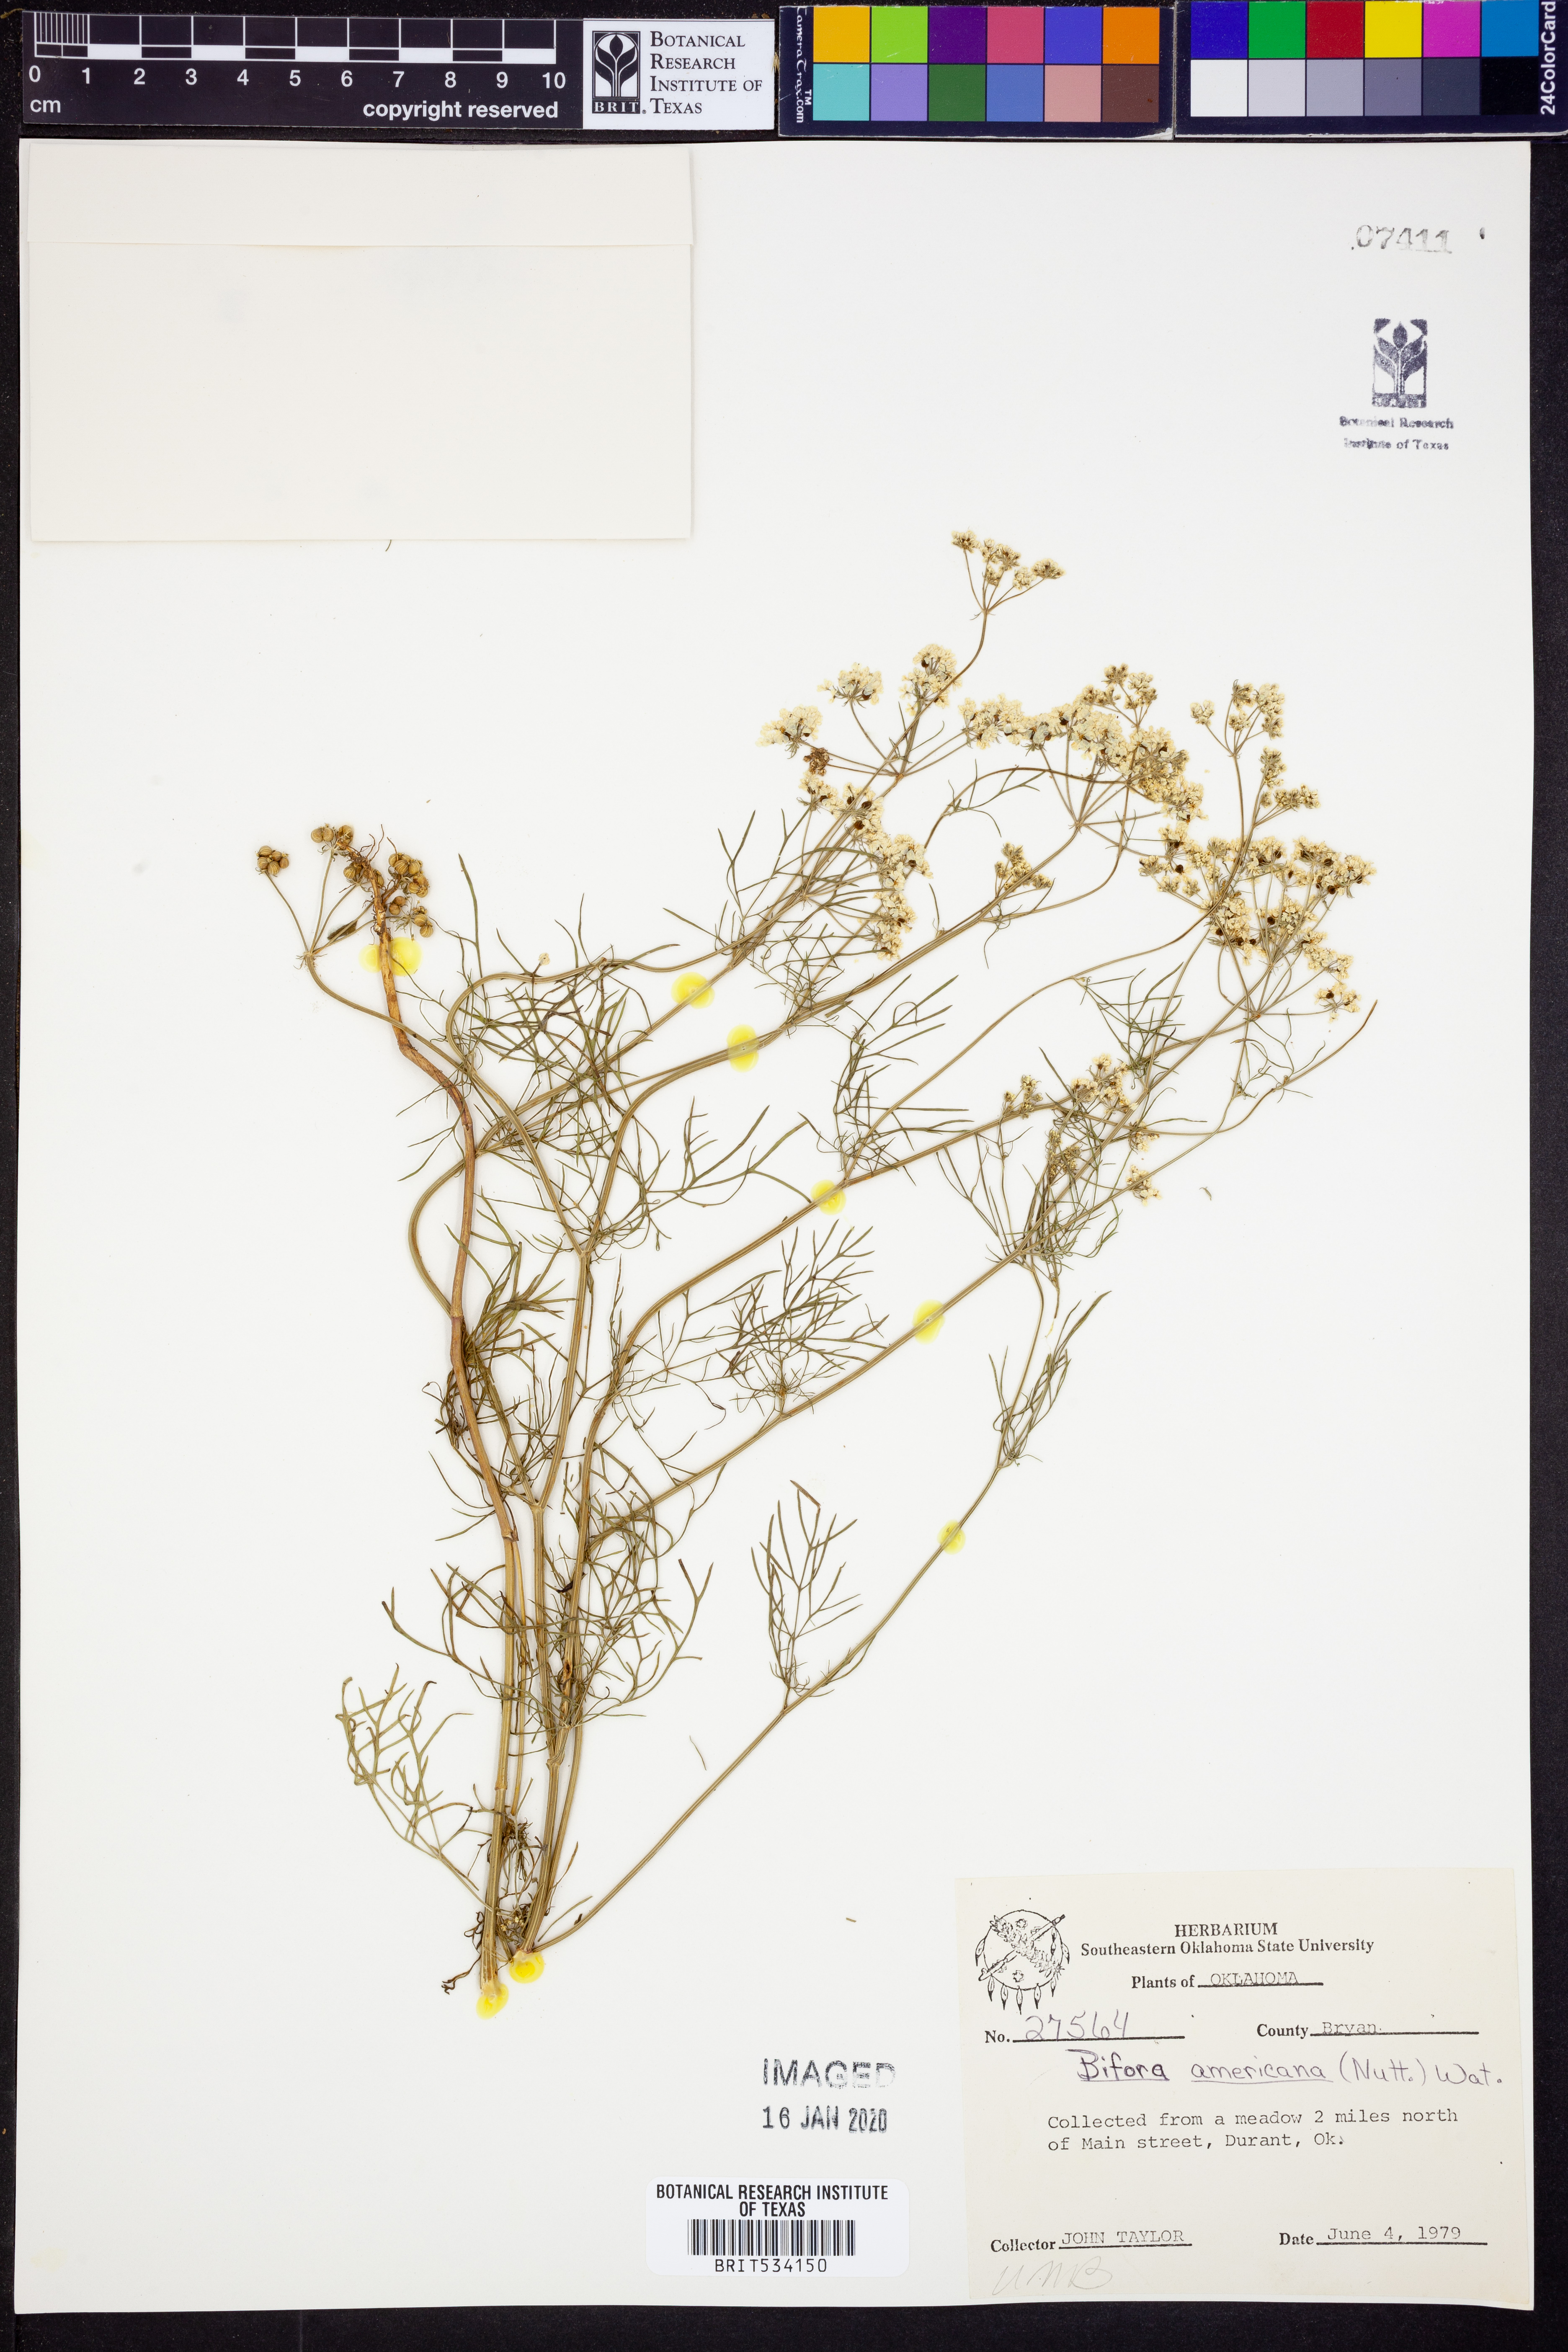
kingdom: Plantae
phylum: Tracheophyta
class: Magnoliopsida
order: Apiales
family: Apiaceae
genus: Atrema
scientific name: Atrema americanum
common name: Prairie-bishop
